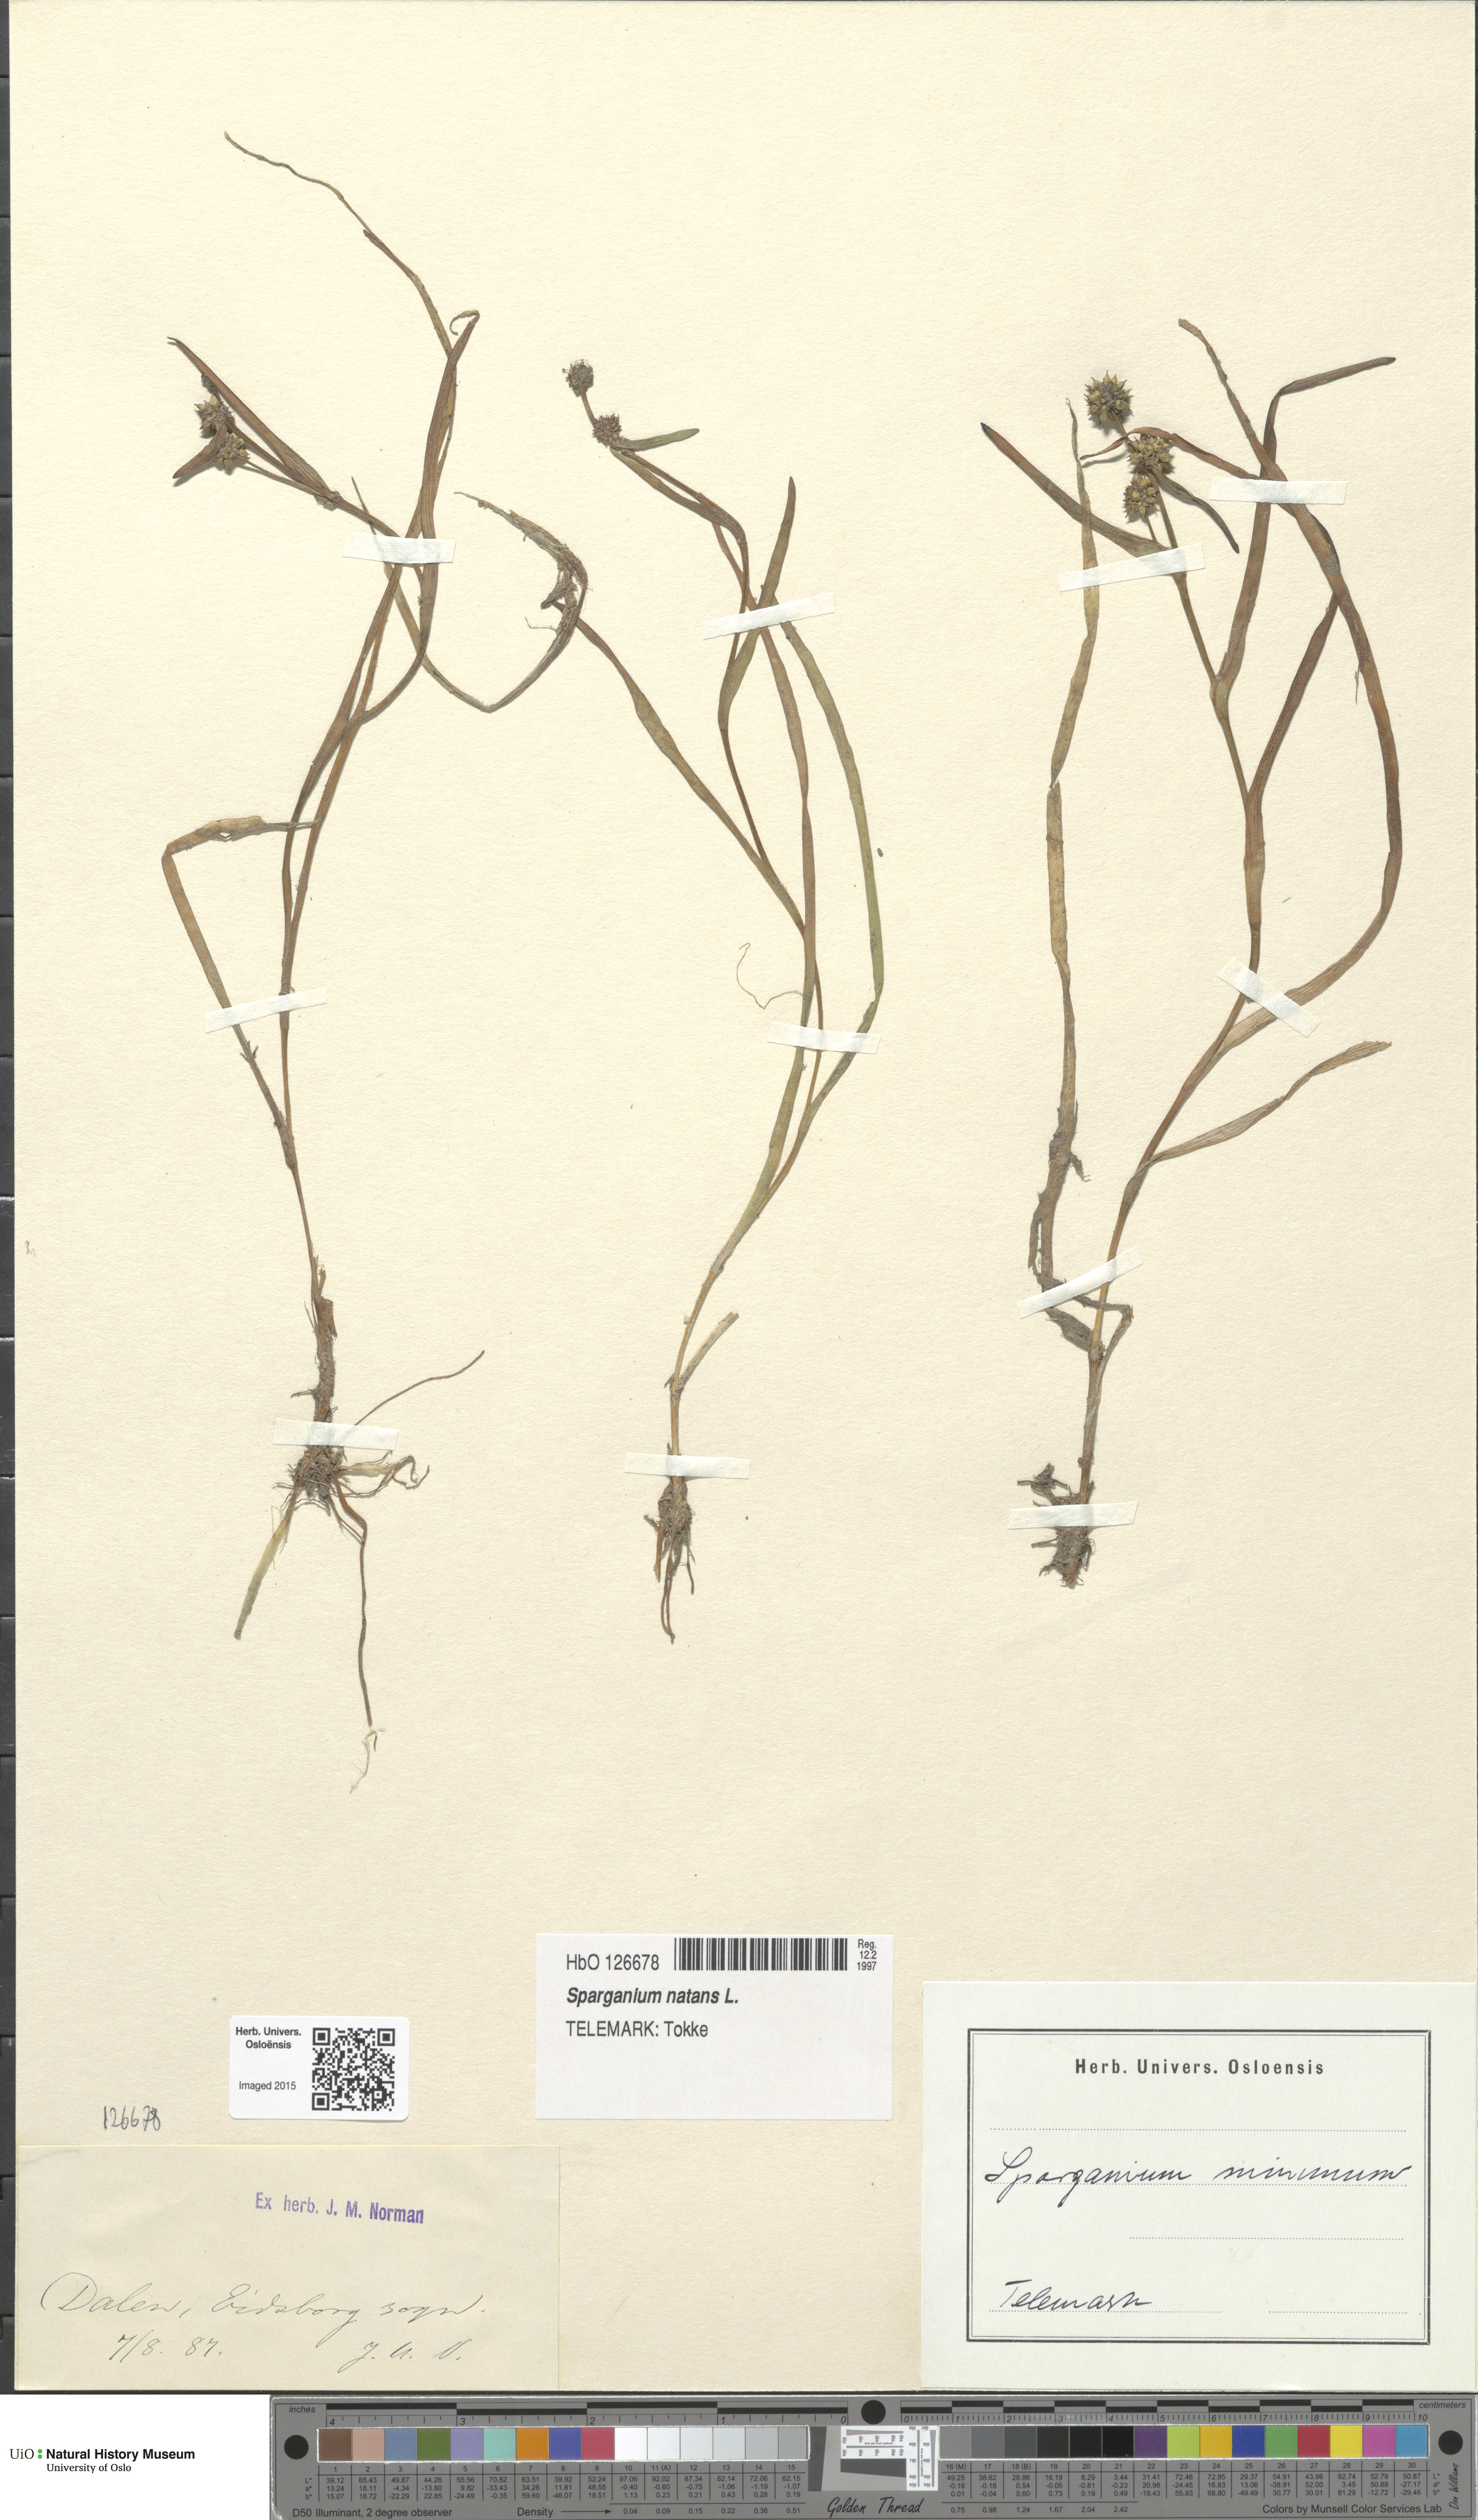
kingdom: Plantae
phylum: Tracheophyta
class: Liliopsida
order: Poales
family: Typhaceae
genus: Sparganium
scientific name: Sparganium natans
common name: Least bur-reed
